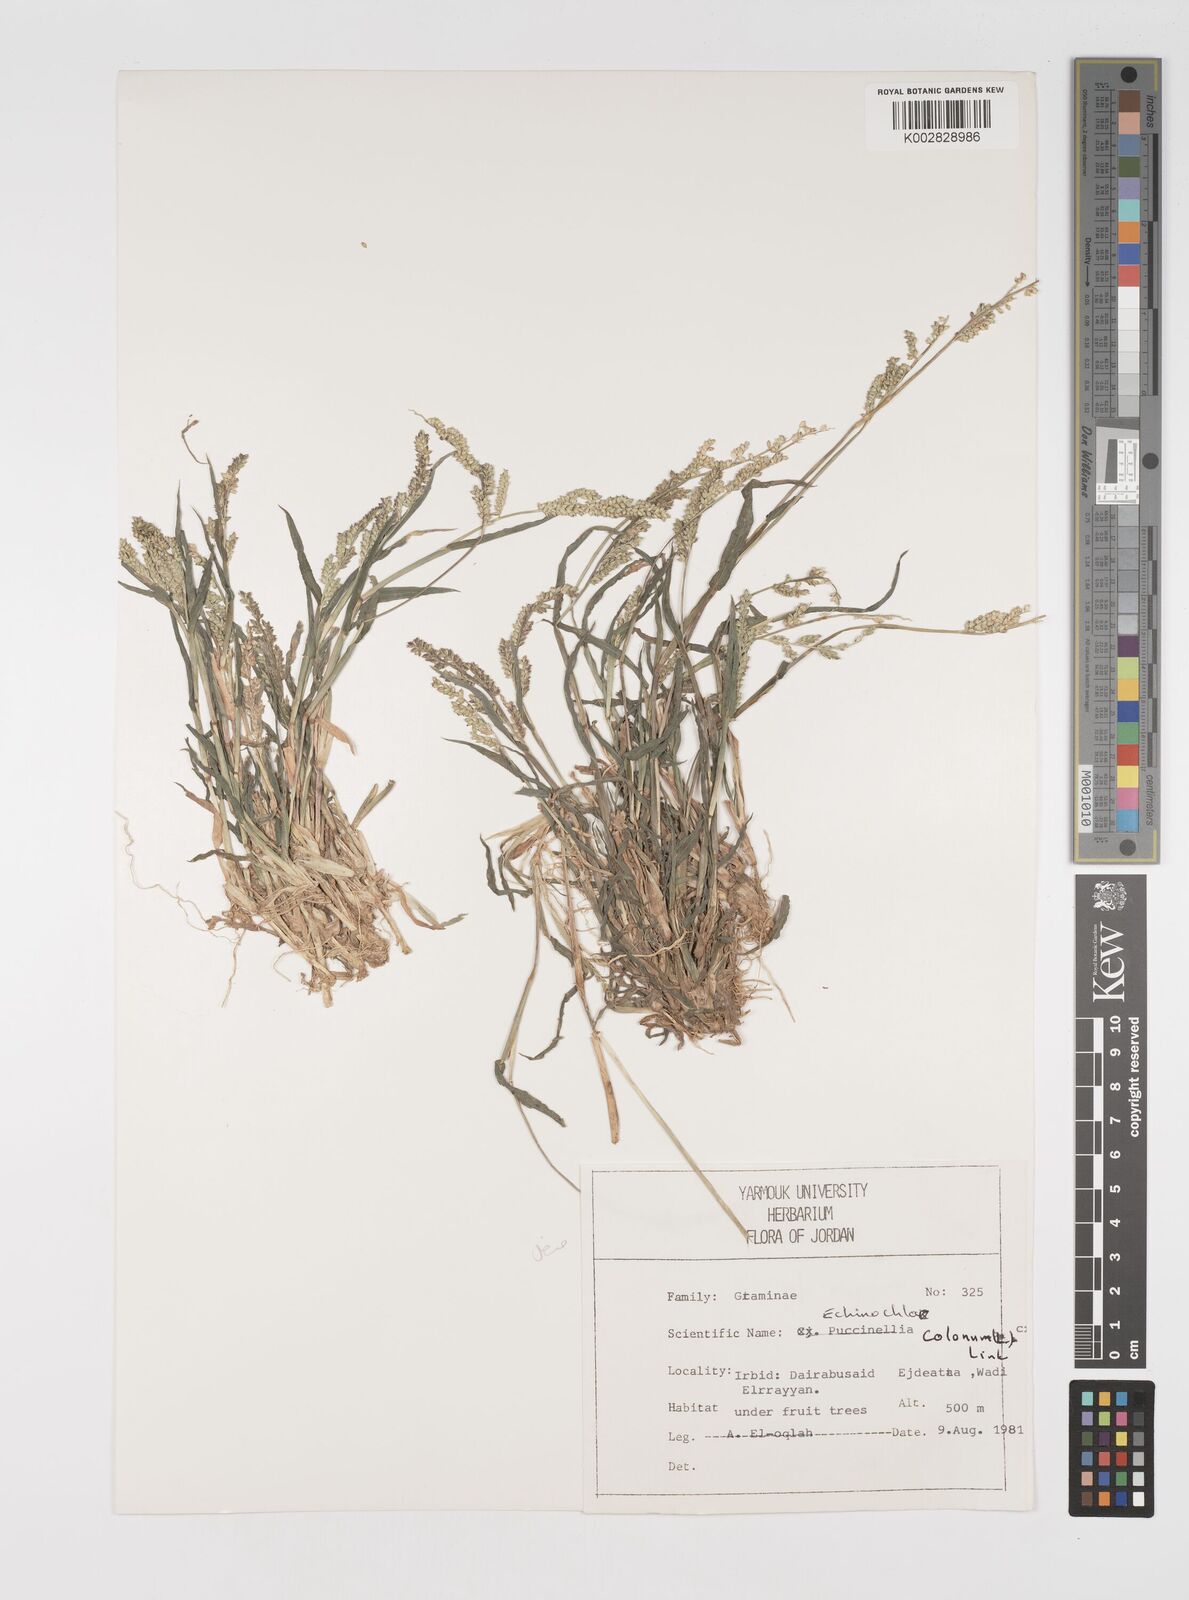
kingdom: Plantae
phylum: Tracheophyta
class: Liliopsida
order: Poales
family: Poaceae
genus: Echinochloa
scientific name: Echinochloa colonum
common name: Jungle rice
